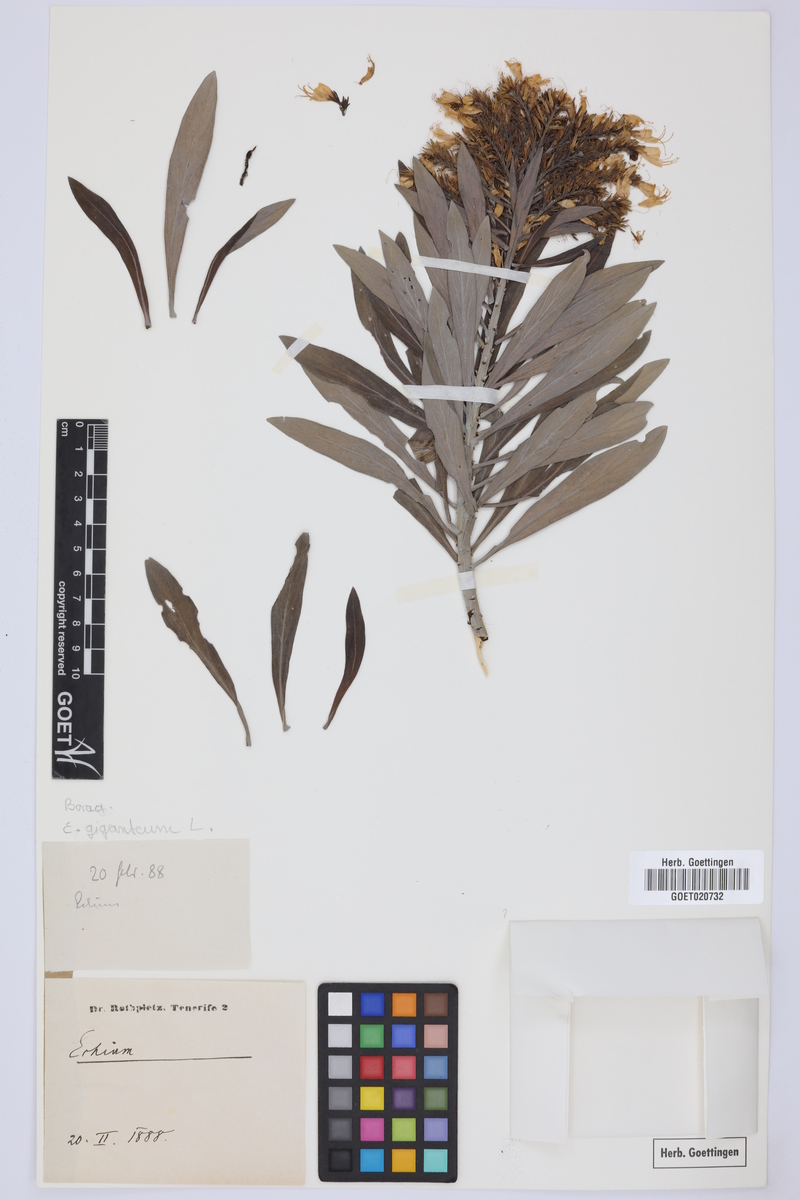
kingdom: Plantae
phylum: Tracheophyta
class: Magnoliopsida
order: Boraginales
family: Boraginaceae
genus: Echium
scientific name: Echium giganteum
